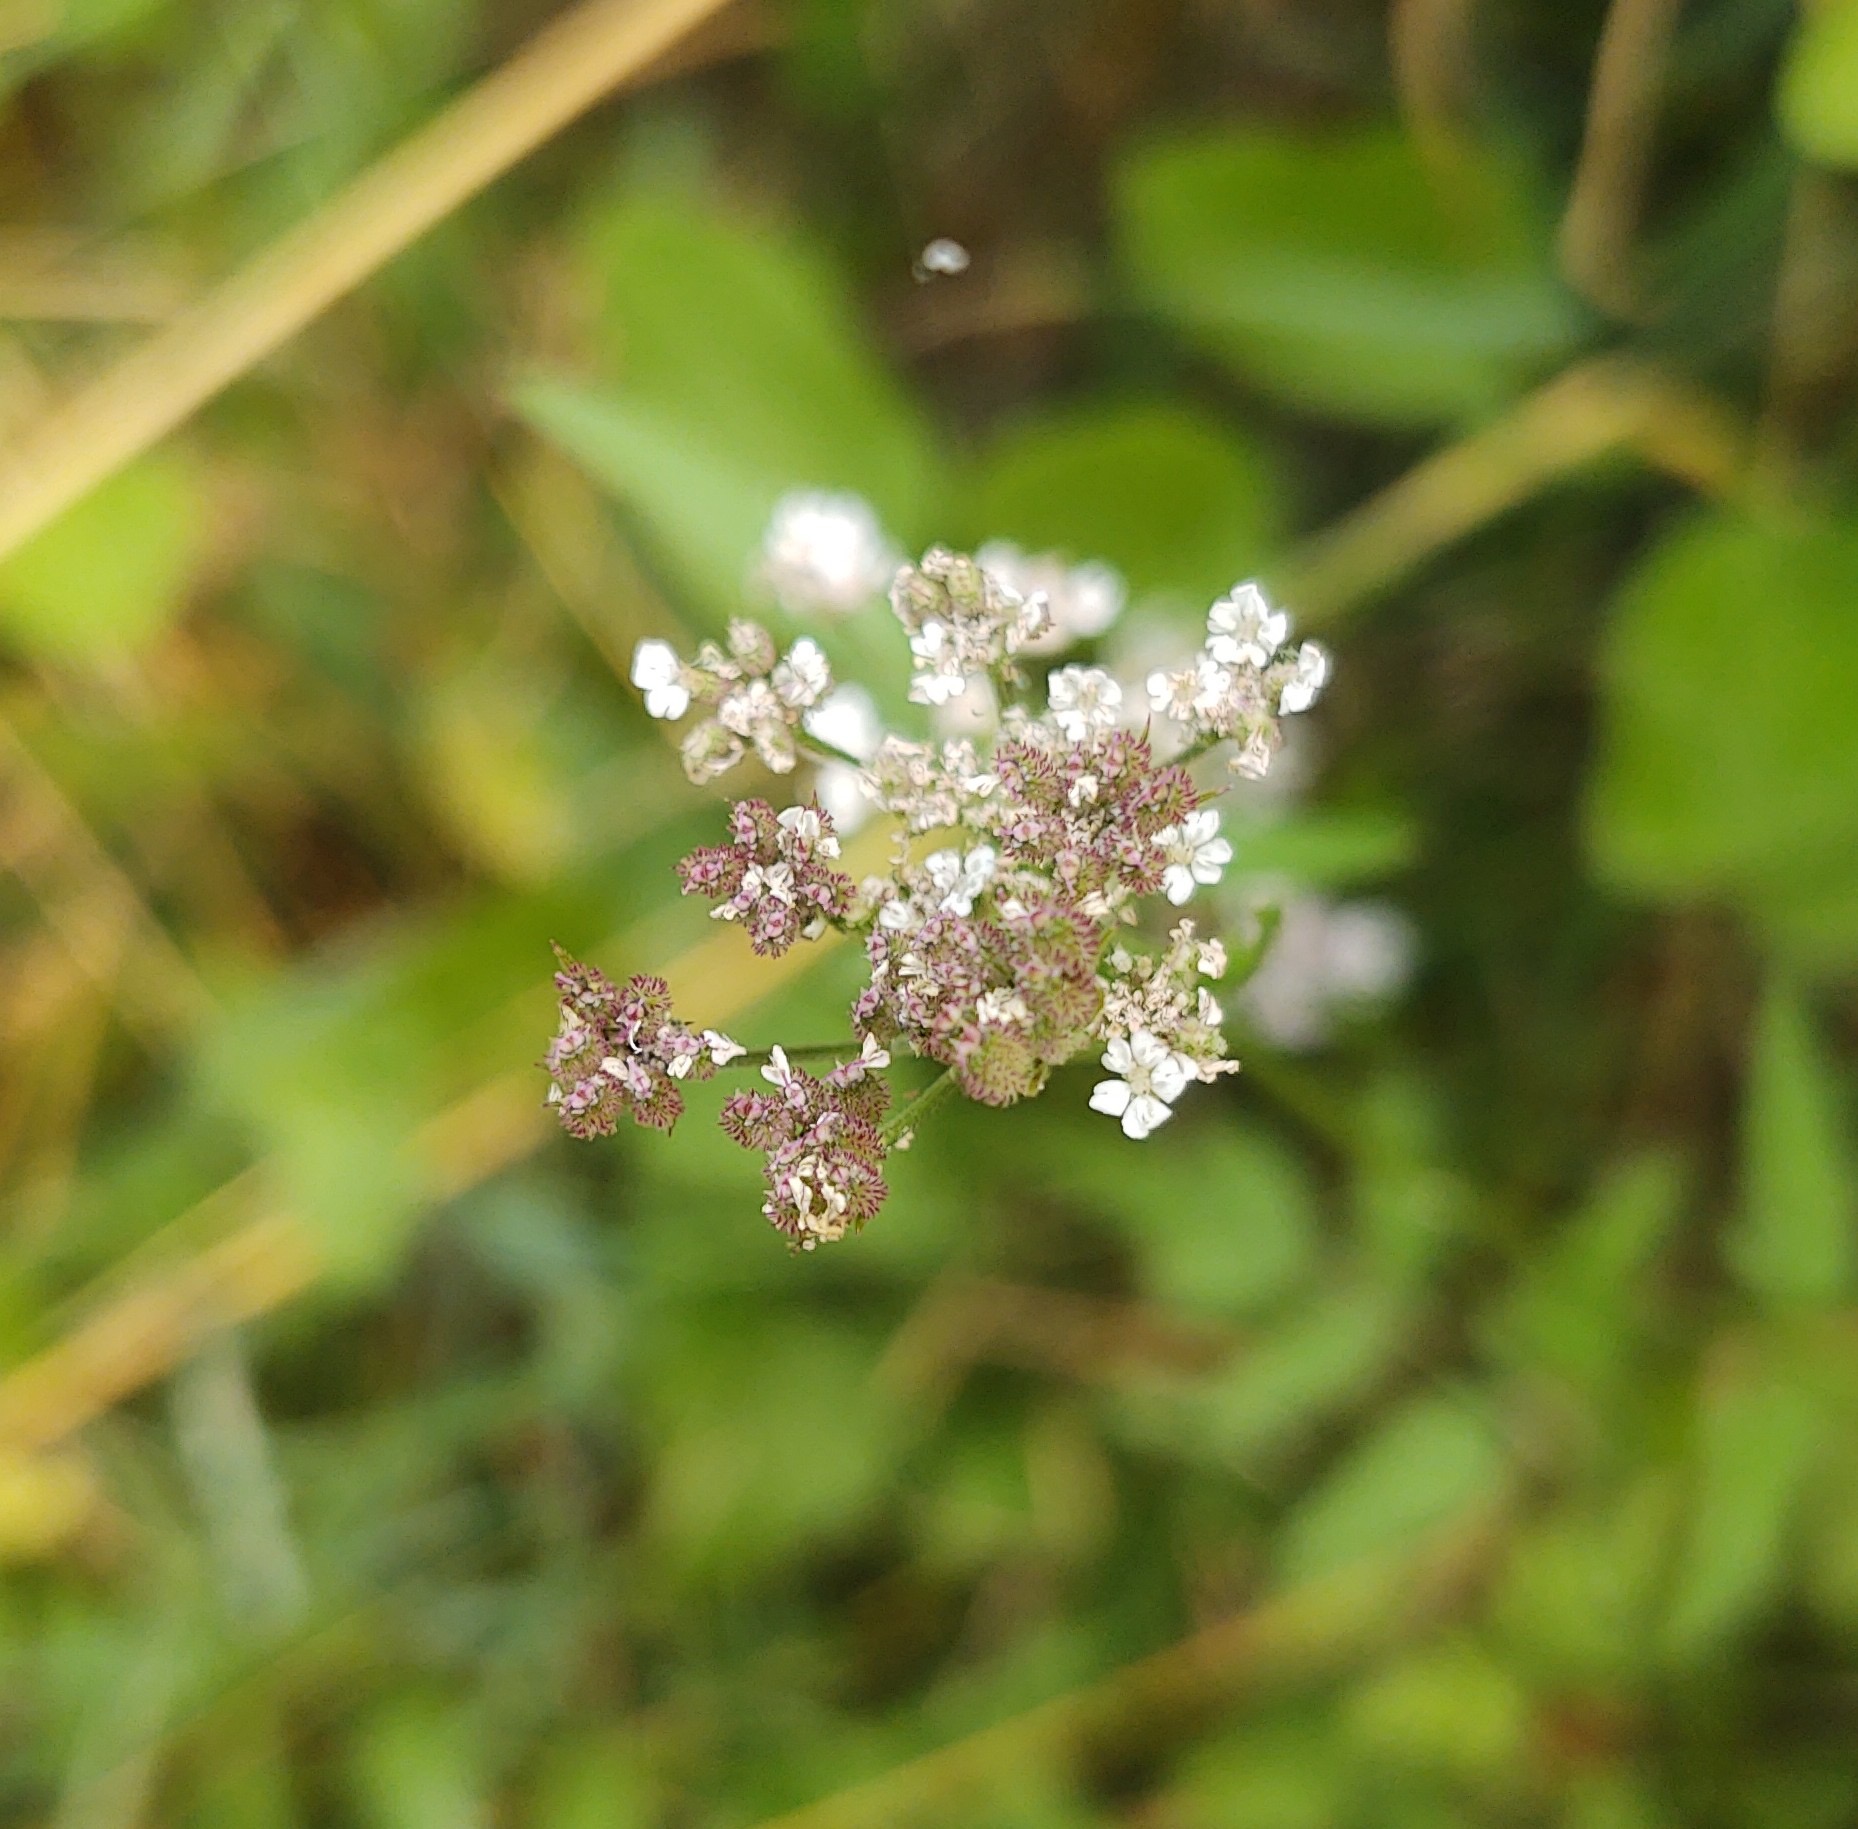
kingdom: Plantae
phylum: Tracheophyta
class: Magnoliopsida
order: Apiales
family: Apiaceae
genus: Torilis
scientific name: Torilis japonica
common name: Hvas randfrø
